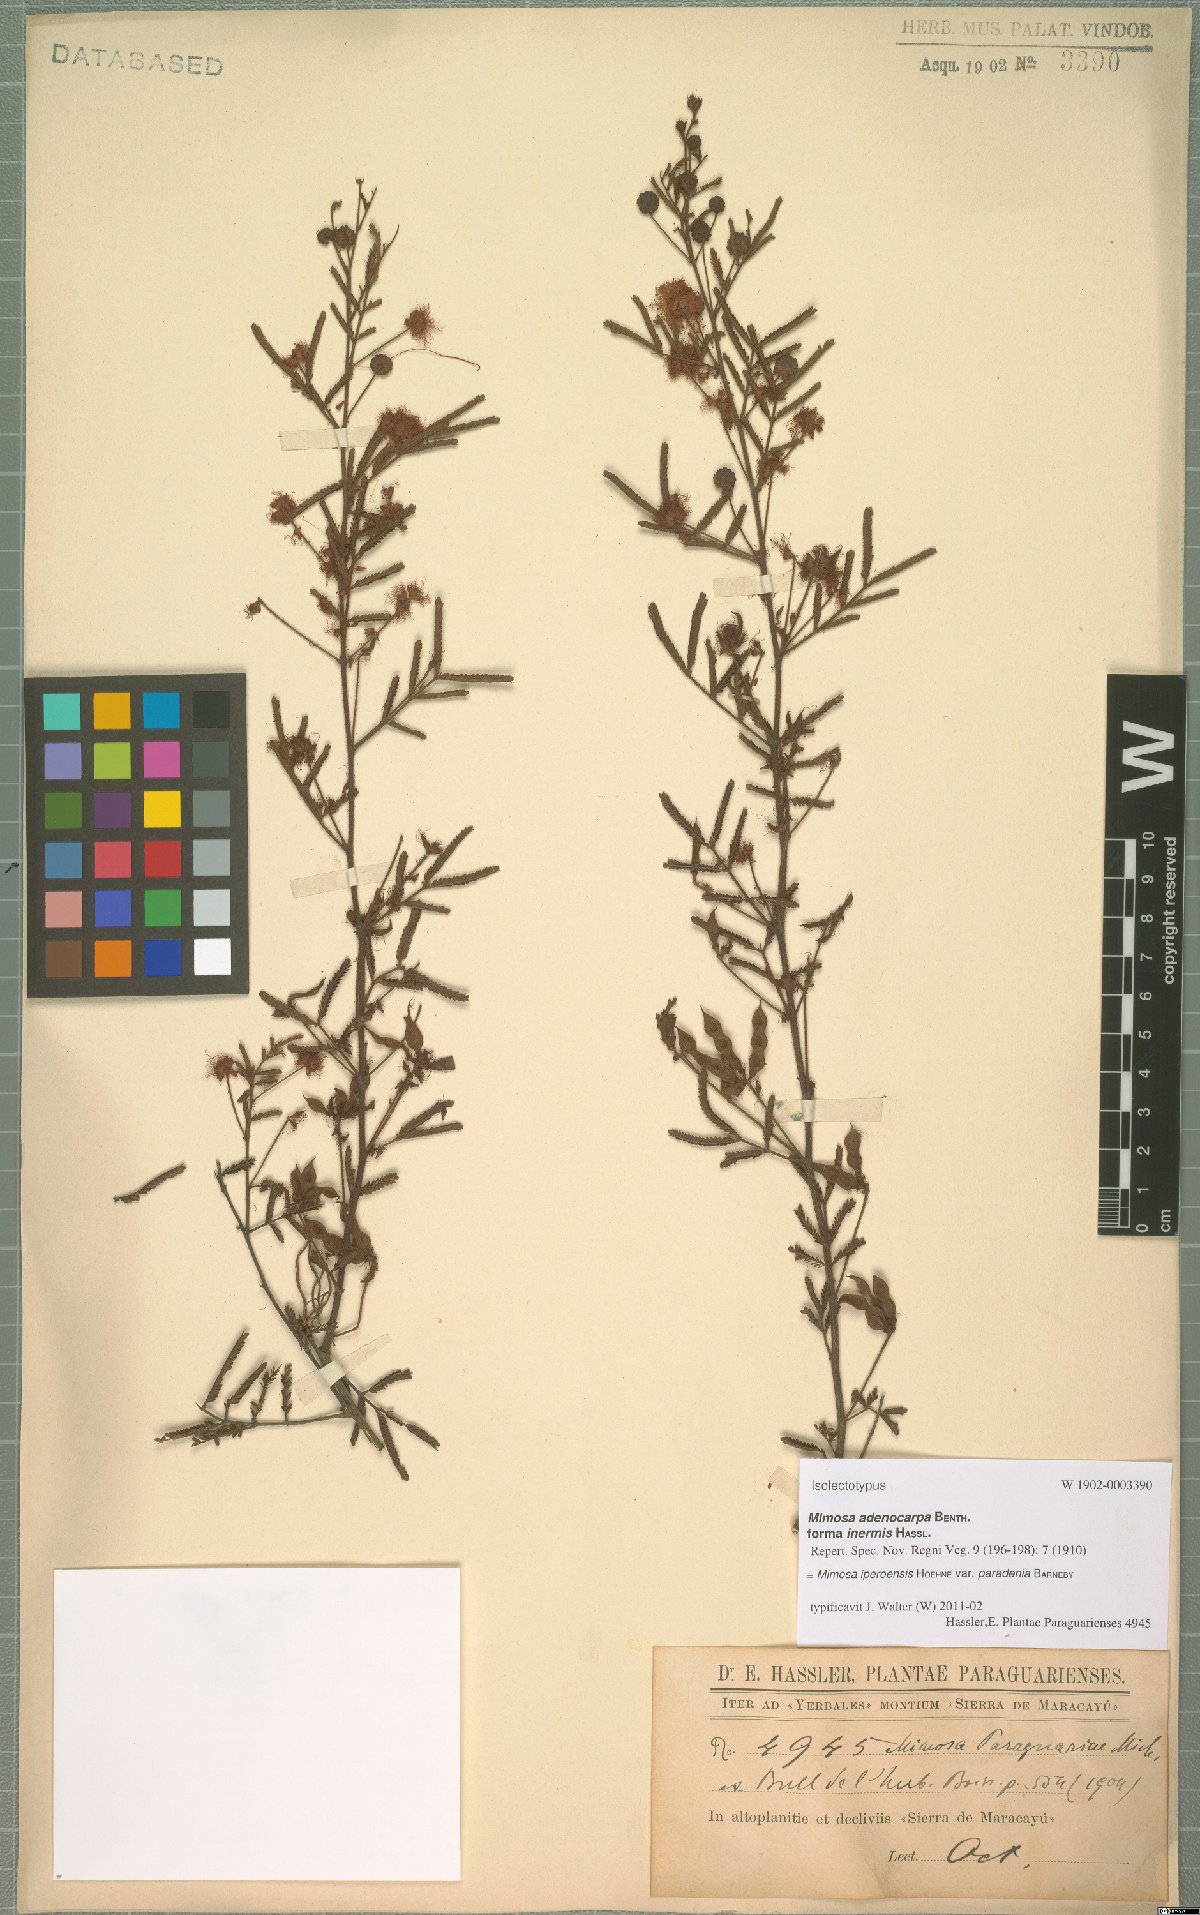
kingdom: Plantae
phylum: Tracheophyta
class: Magnoliopsida
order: Fabales
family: Fabaceae
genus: Mimosa
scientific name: Mimosa iperoensis
